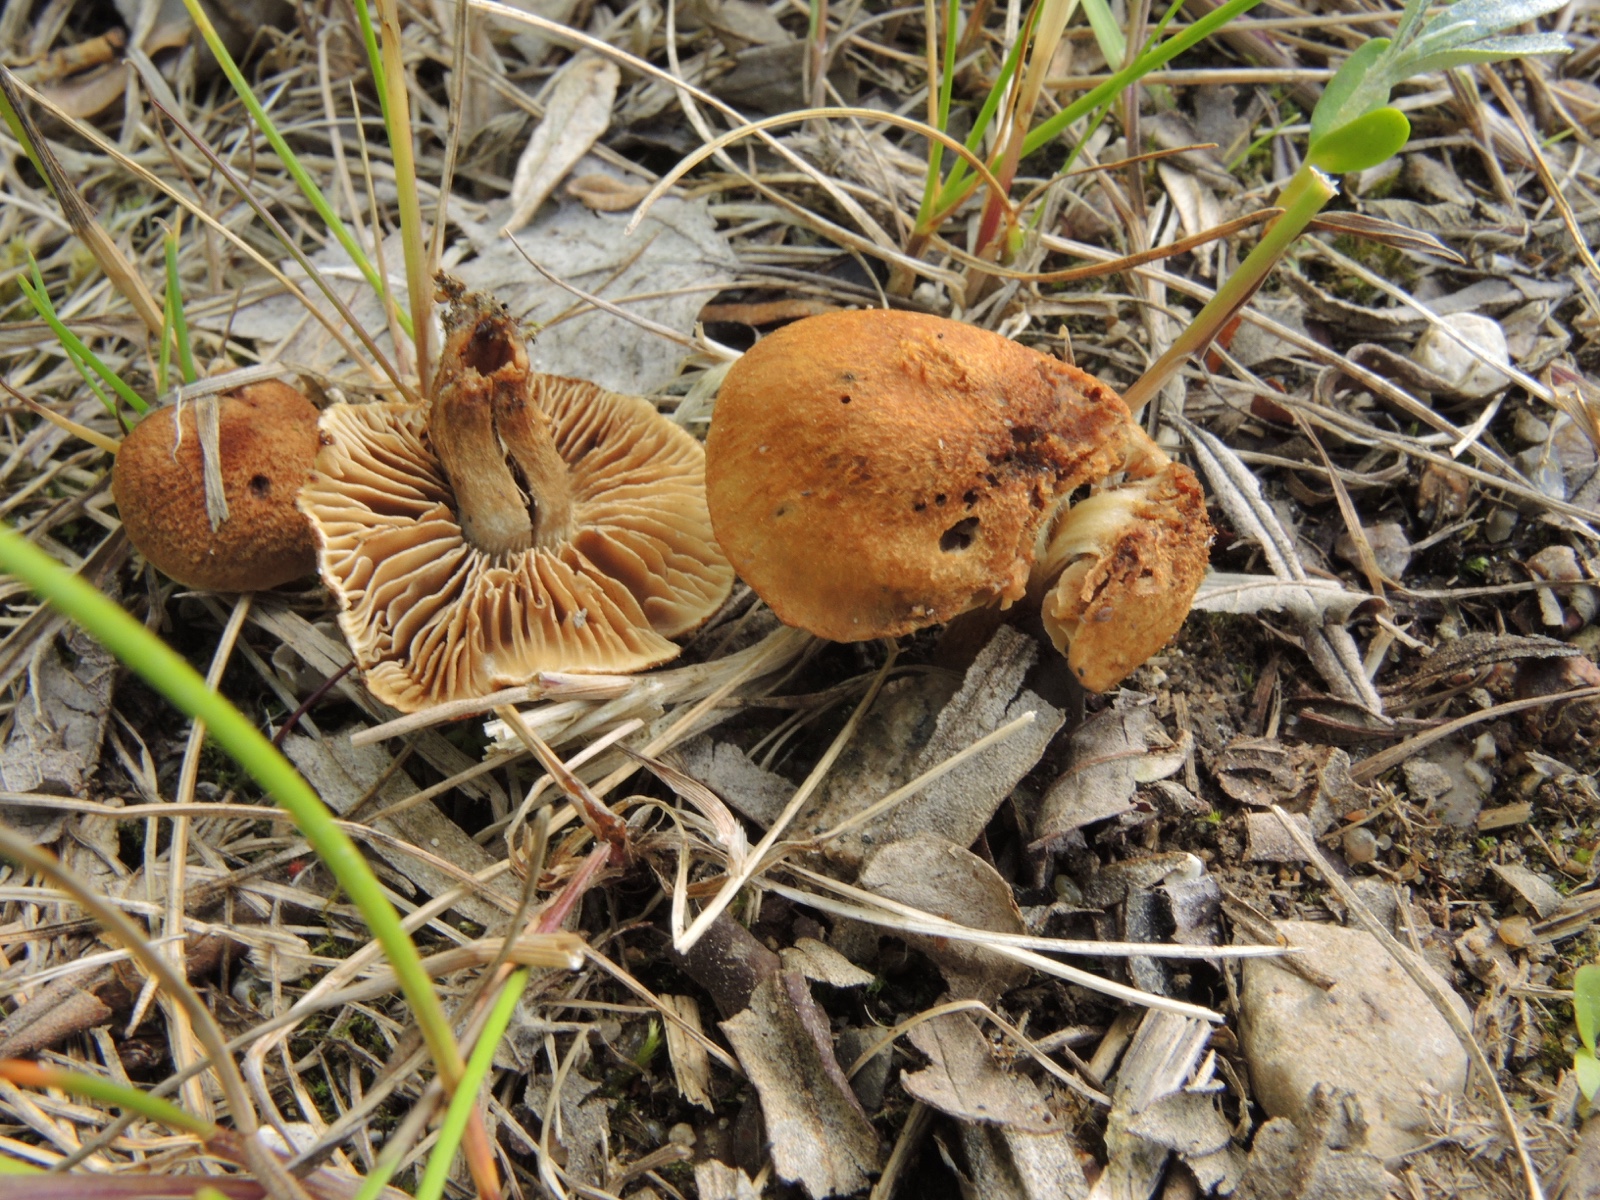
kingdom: Fungi
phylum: Basidiomycota
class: Agaricomycetes
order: Agaricales
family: Inocybaceae
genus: Inocybe
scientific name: Inocybe dulcamara
